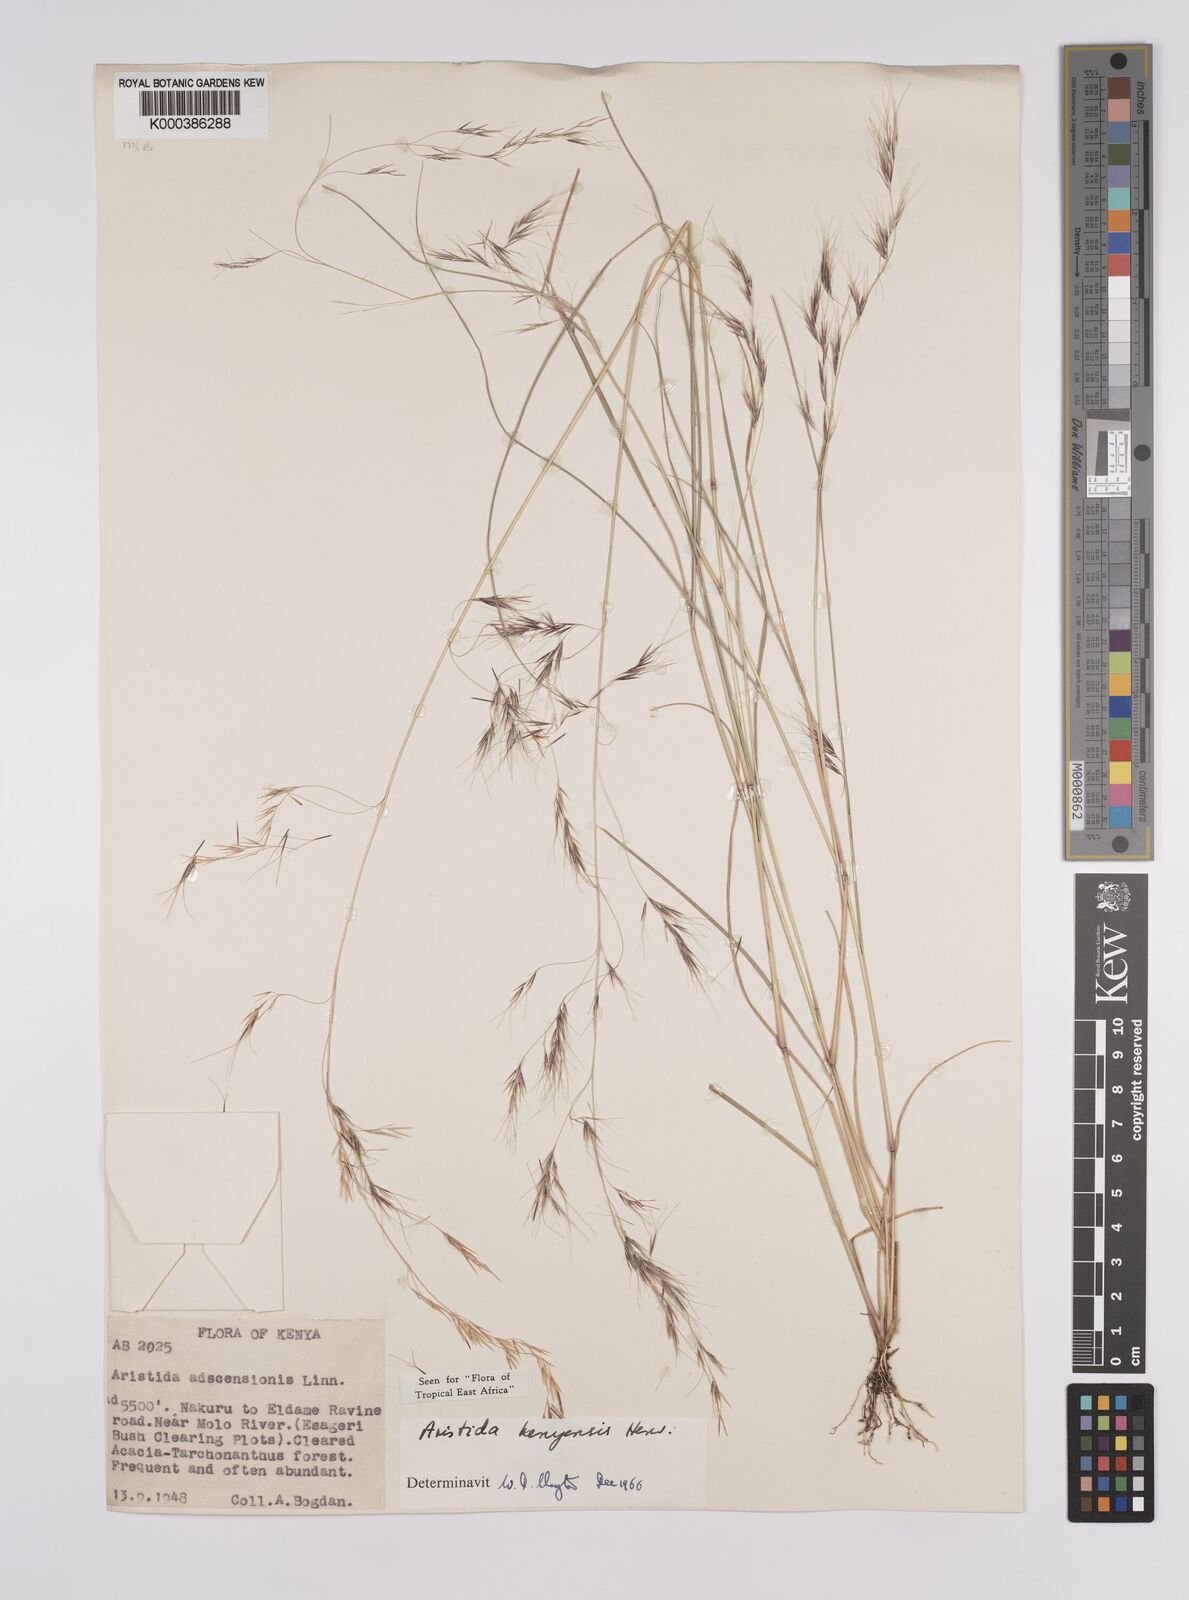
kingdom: Plantae
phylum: Tracheophyta
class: Liliopsida
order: Poales
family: Poaceae
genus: Aristida
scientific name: Aristida kenyensis
